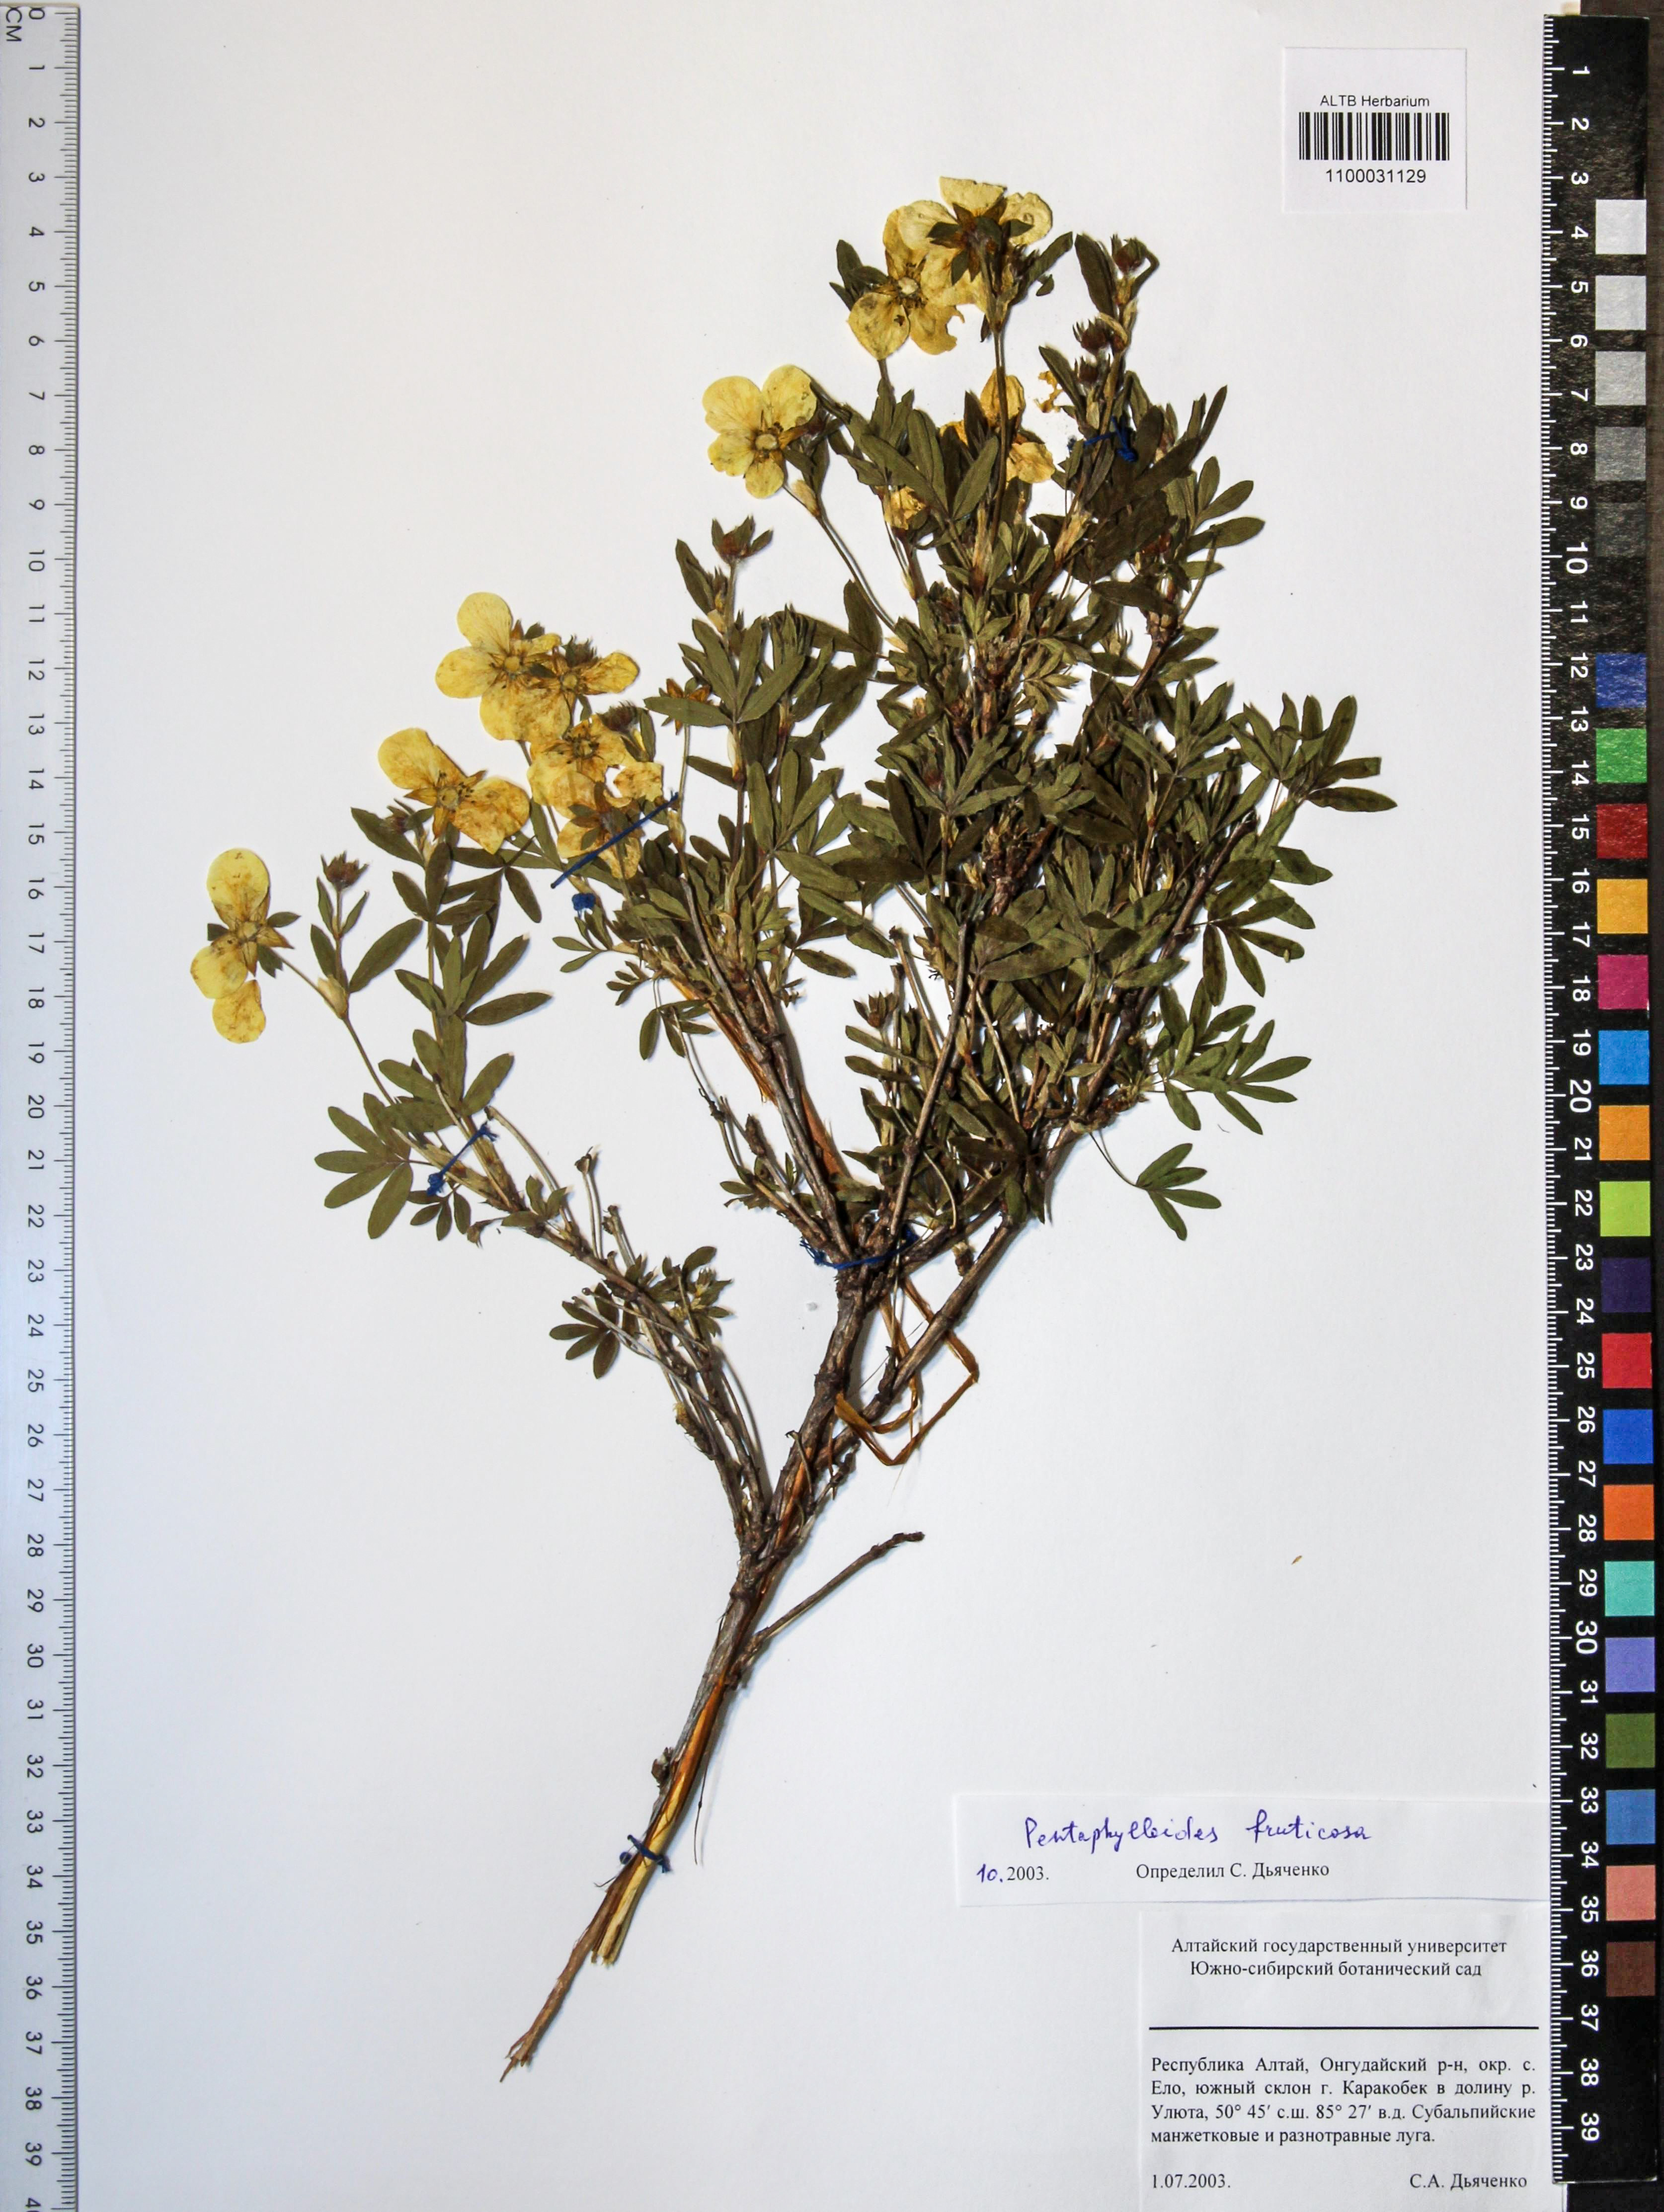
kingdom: Plantae
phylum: Tracheophyta
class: Magnoliopsida
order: Rosales
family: Rosaceae
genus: Dasiphora
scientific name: Dasiphora fruticosa
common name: Shrubby cinquefoil
